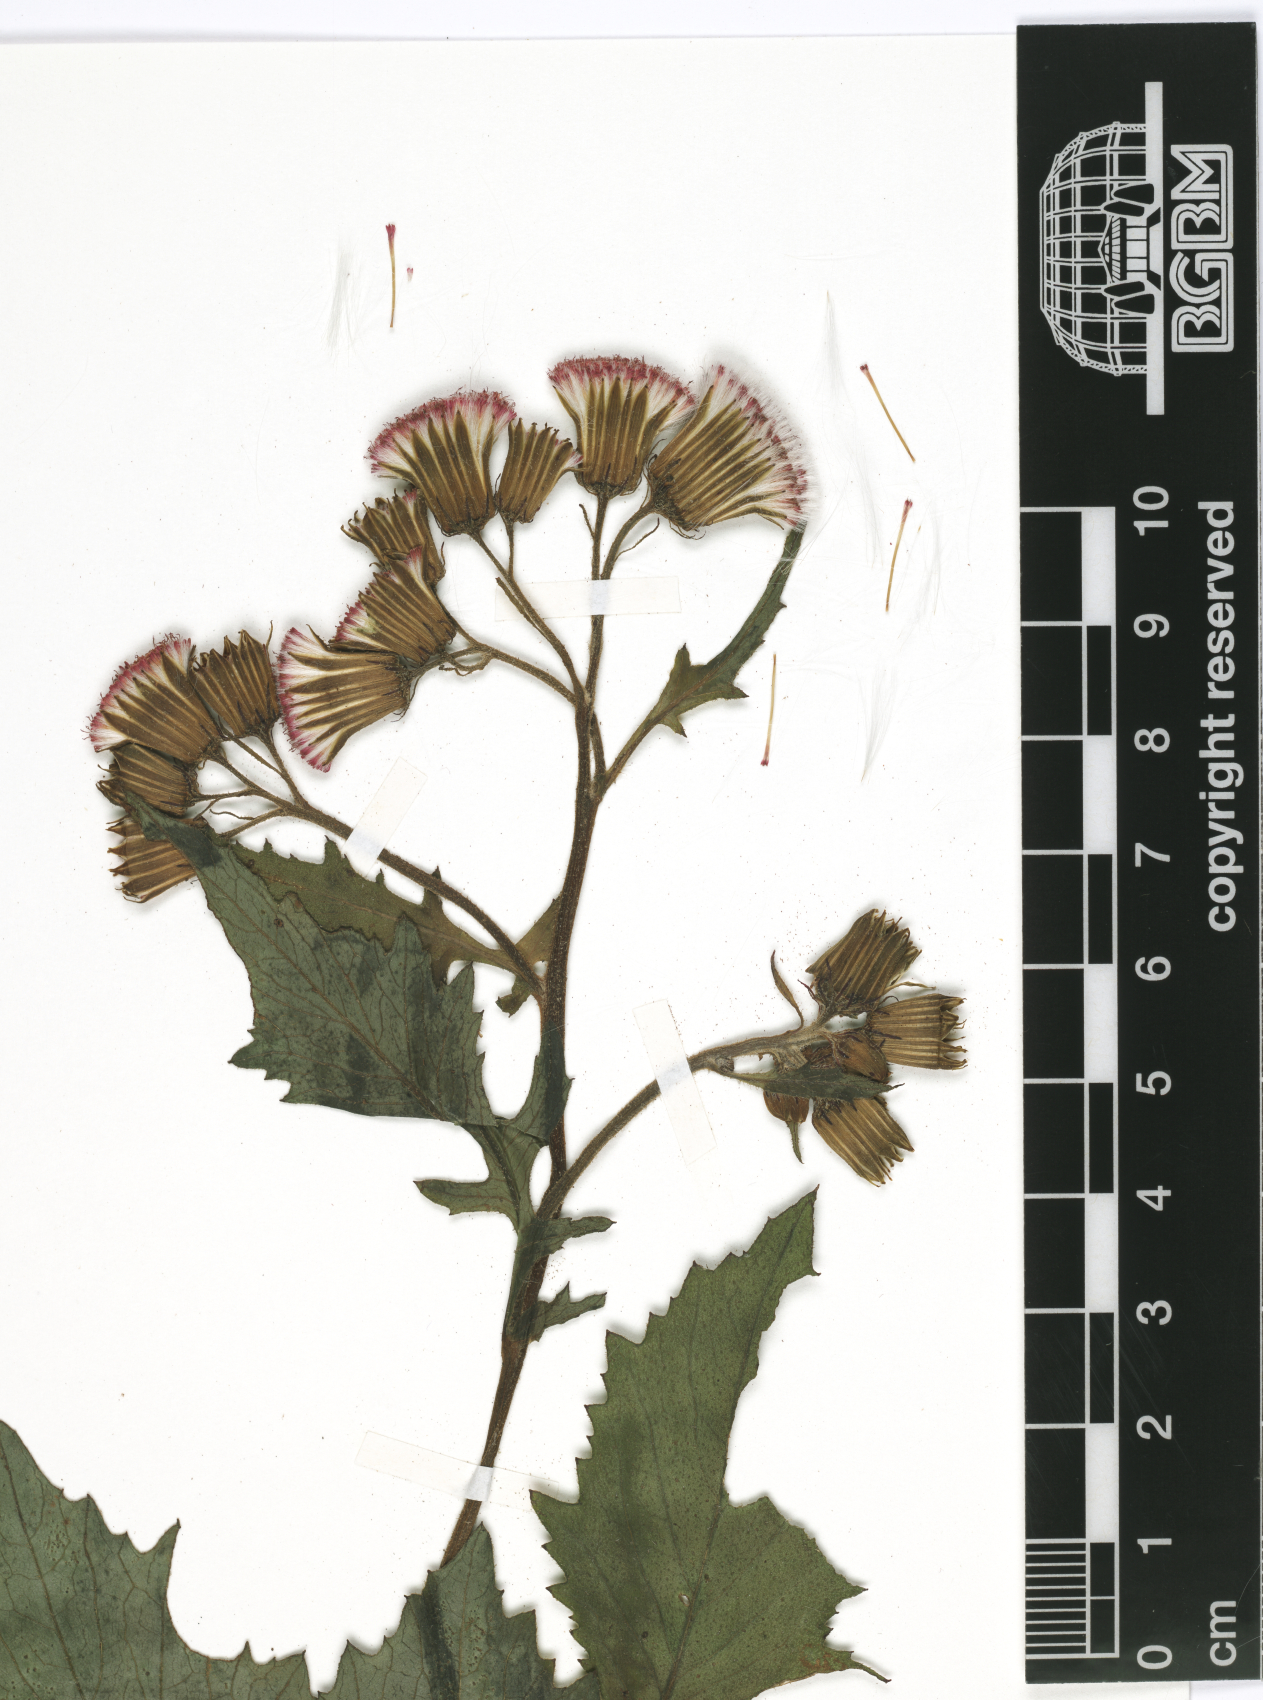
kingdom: Plantae
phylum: Tracheophyta
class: Magnoliopsida
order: Asterales
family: Asteraceae
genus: Crassocephalum
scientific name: Crassocephalum crepidioides
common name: Redflower ragleaf
